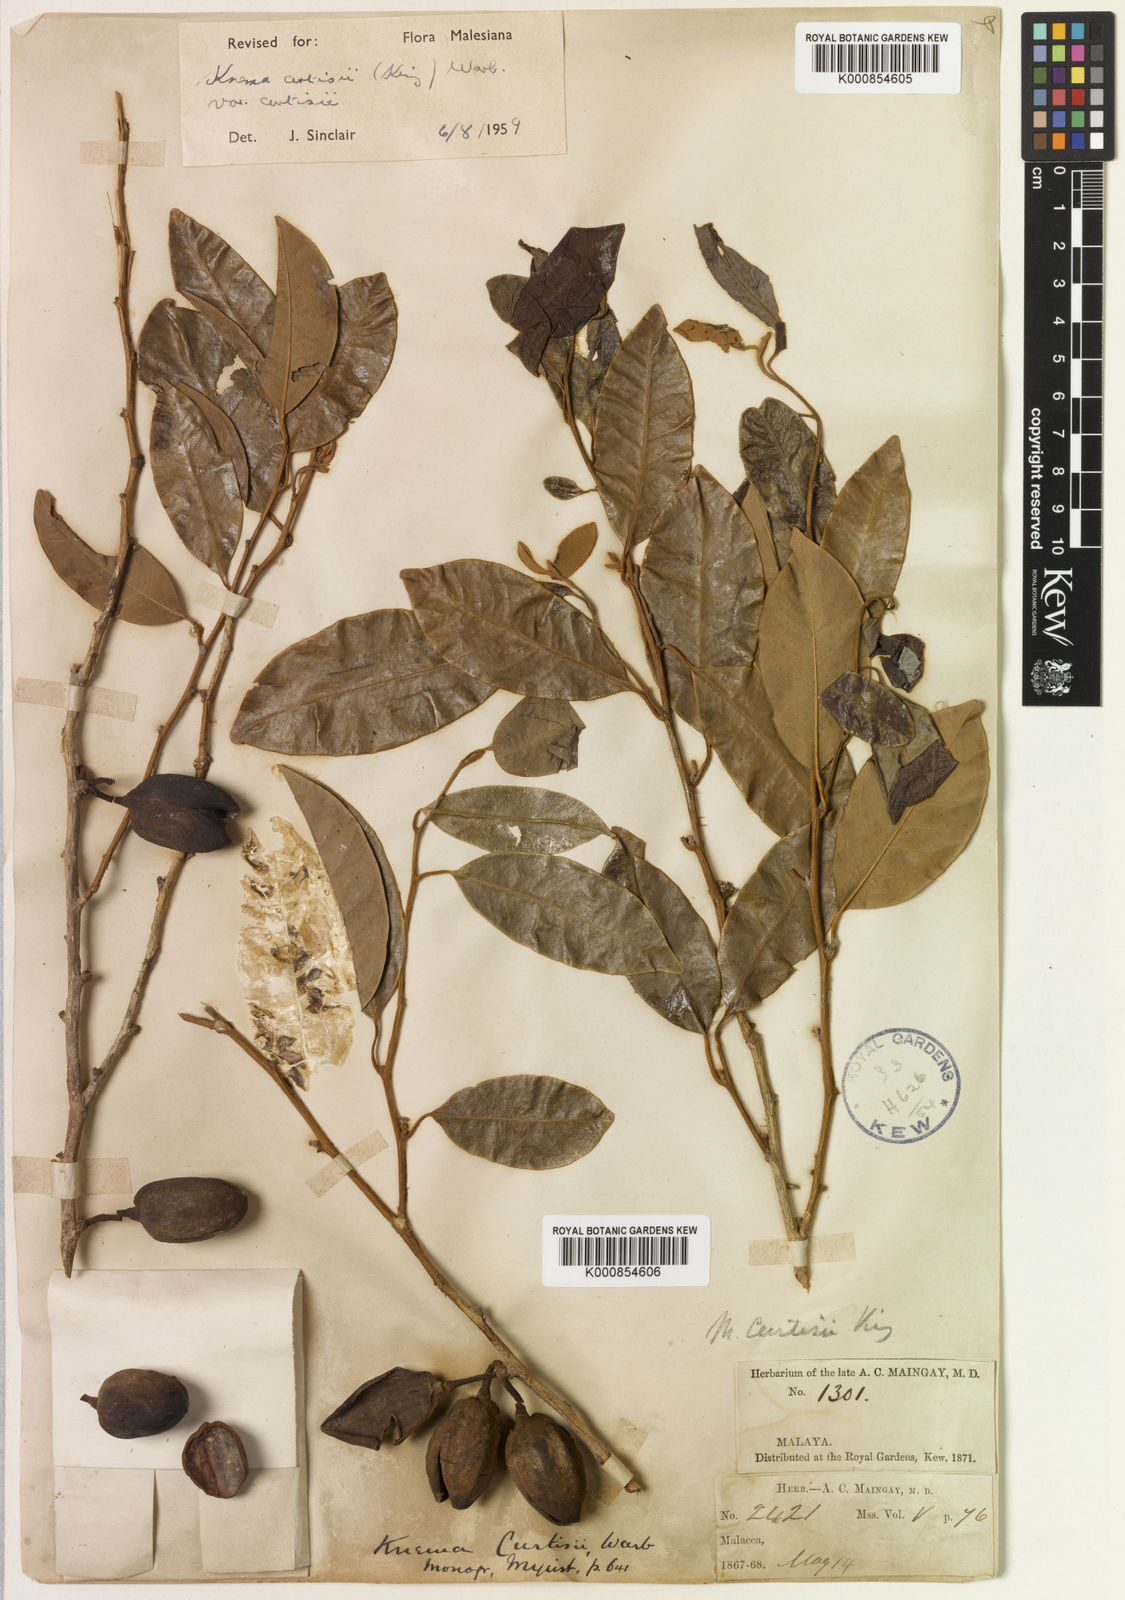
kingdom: Plantae
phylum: Tracheophyta
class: Magnoliopsida
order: Magnoliales
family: Myristicaceae
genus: Knema
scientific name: Knema curtisii
